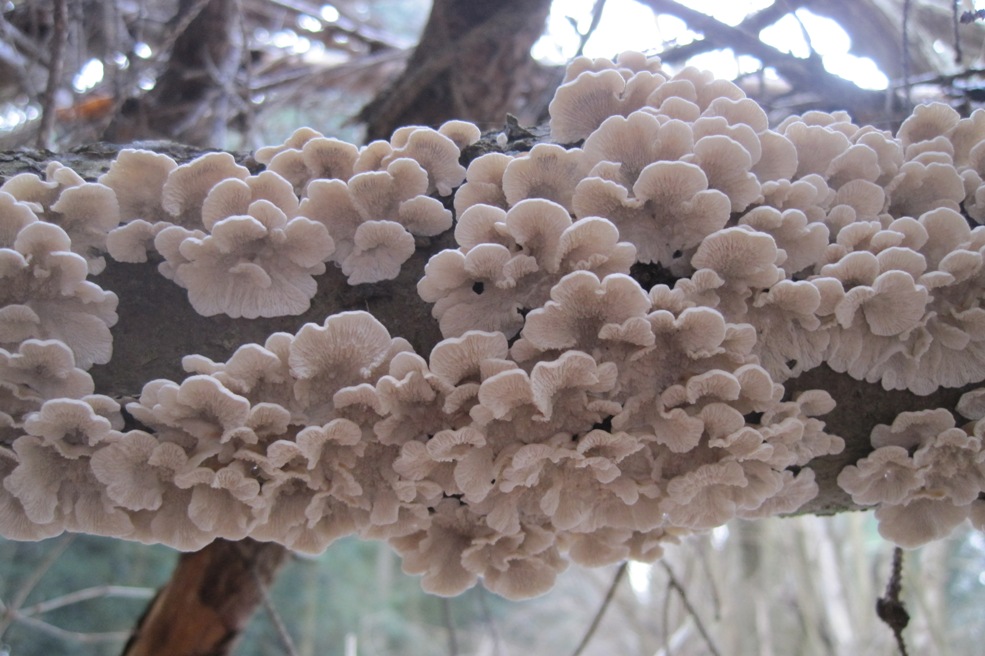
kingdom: Fungi
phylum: Basidiomycota
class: Agaricomycetes
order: Amylocorticiales
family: Amylocorticiaceae
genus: Plicaturopsis
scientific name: Plicaturopsis crispa
